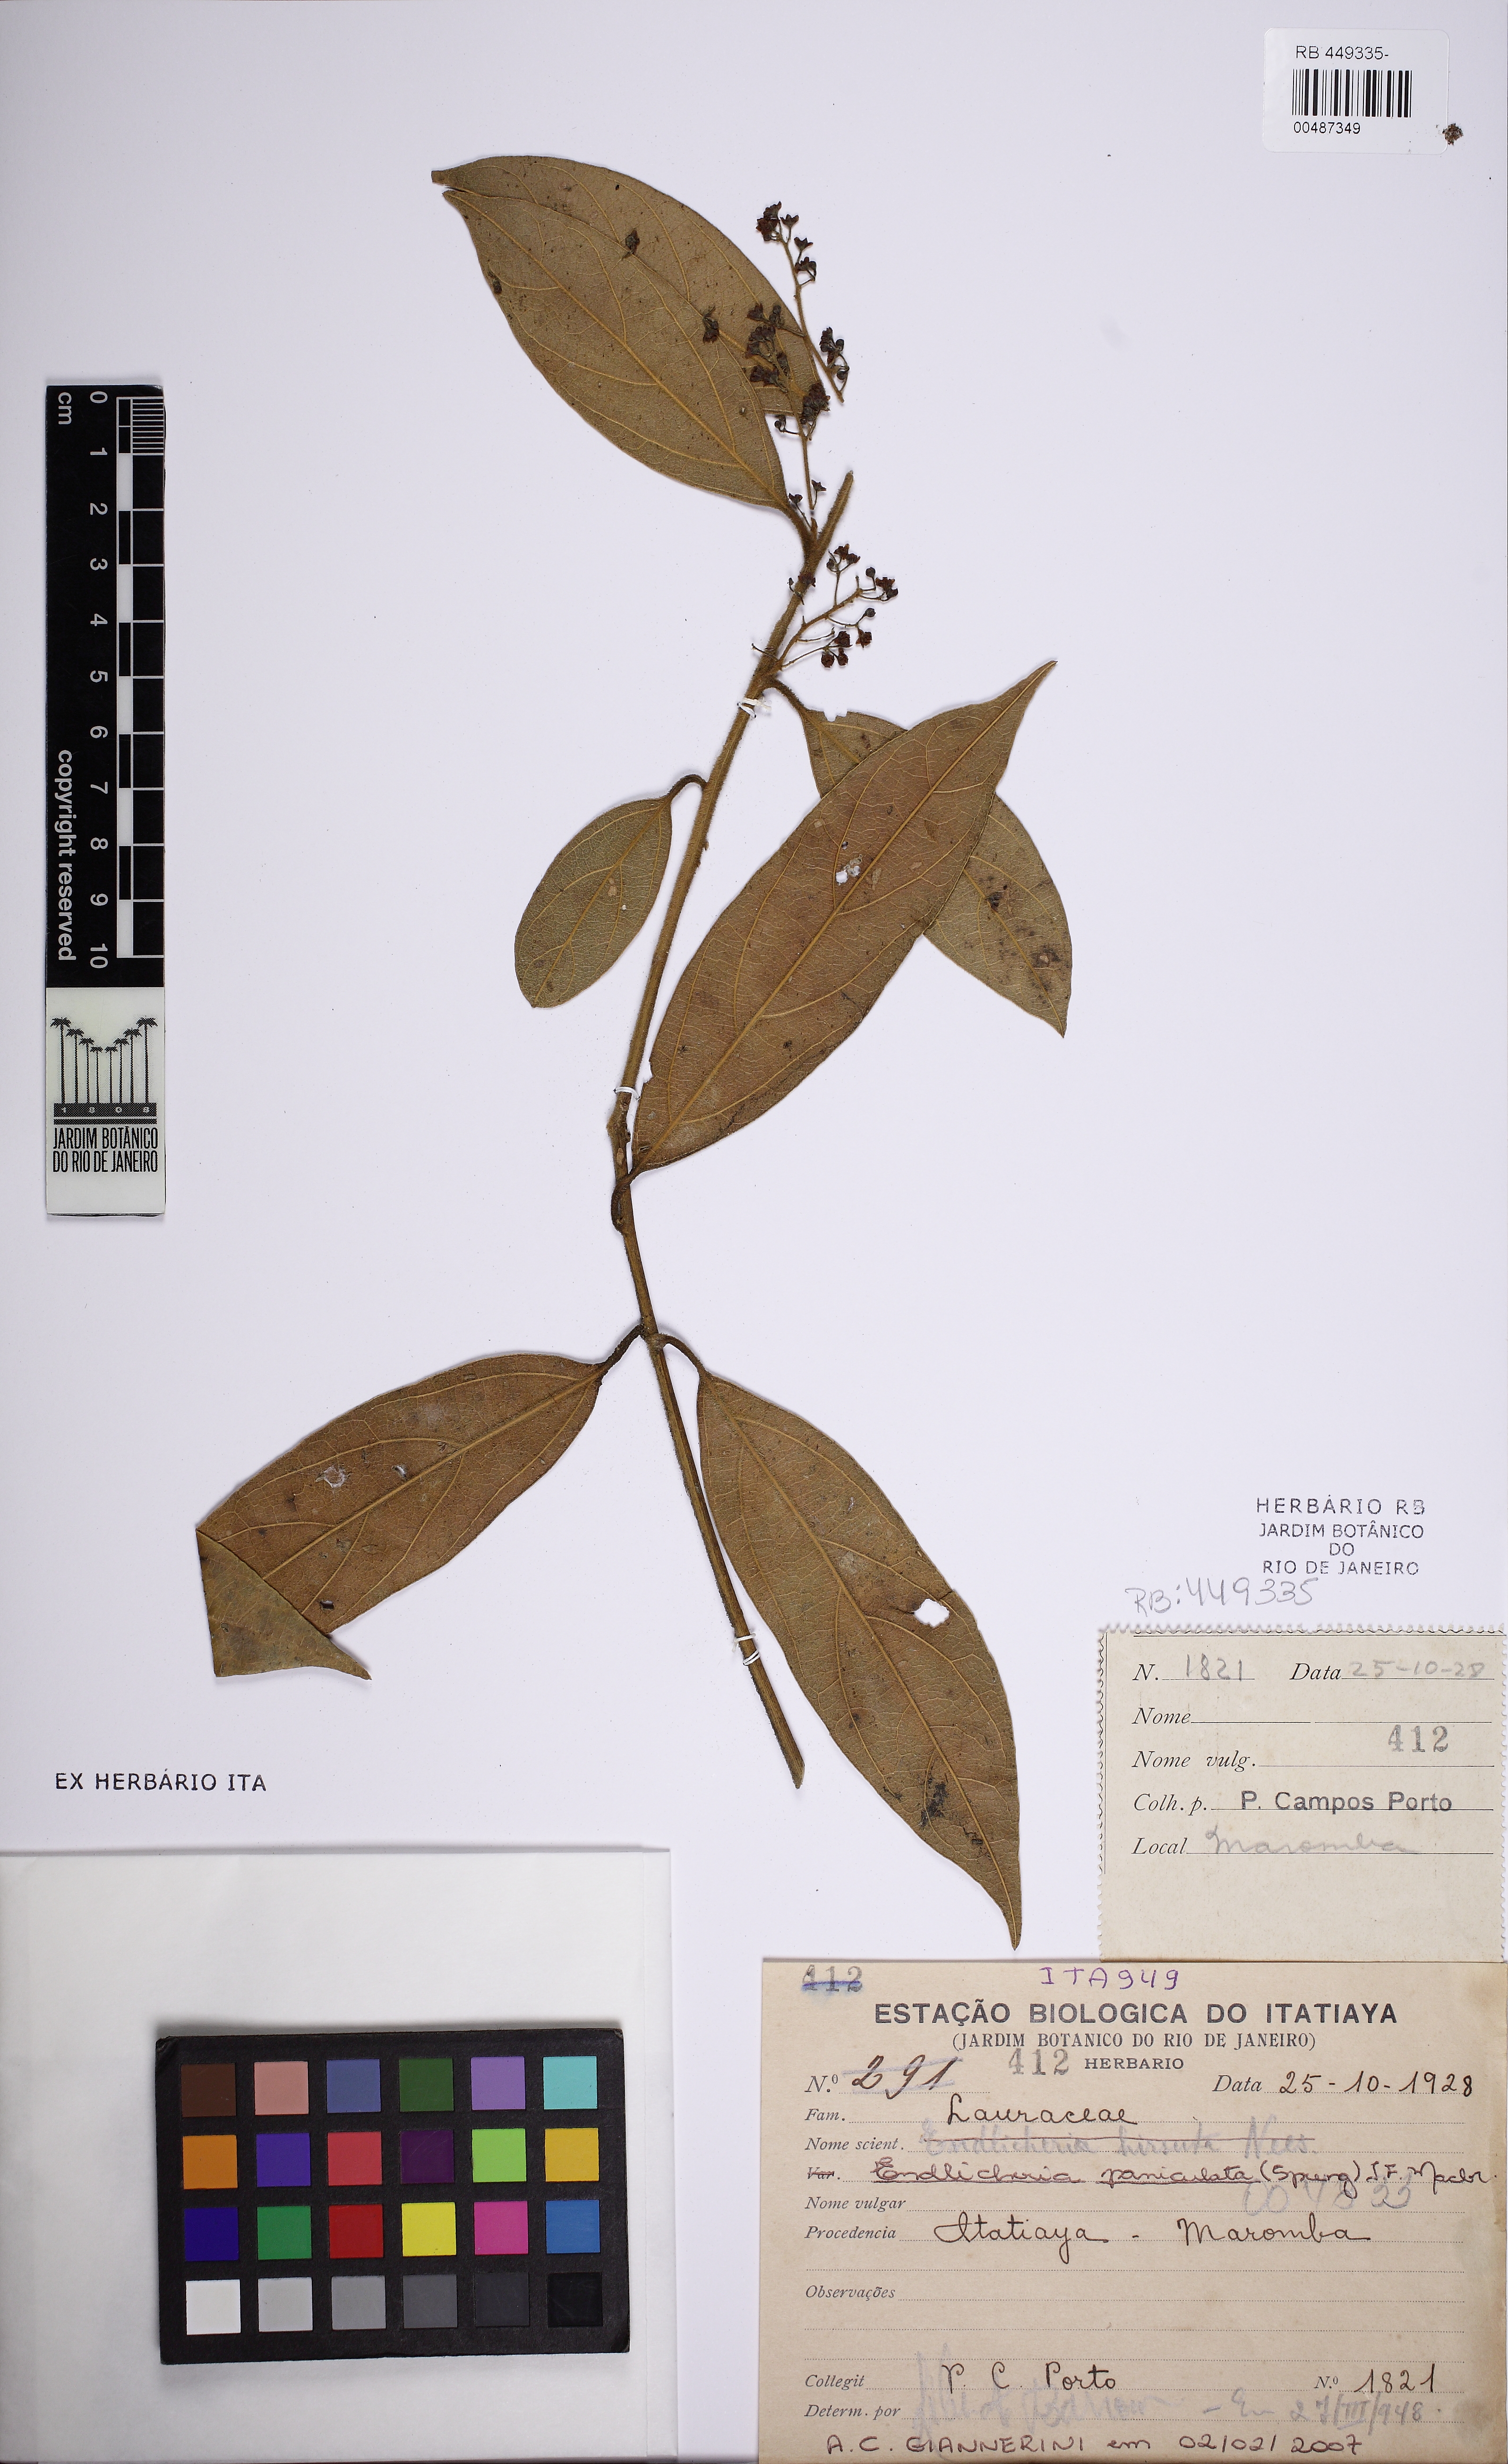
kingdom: Plantae
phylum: Tracheophyta
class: Magnoliopsida
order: Laurales
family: Lauraceae
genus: Endlicheria
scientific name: Endlicheria paniculata
